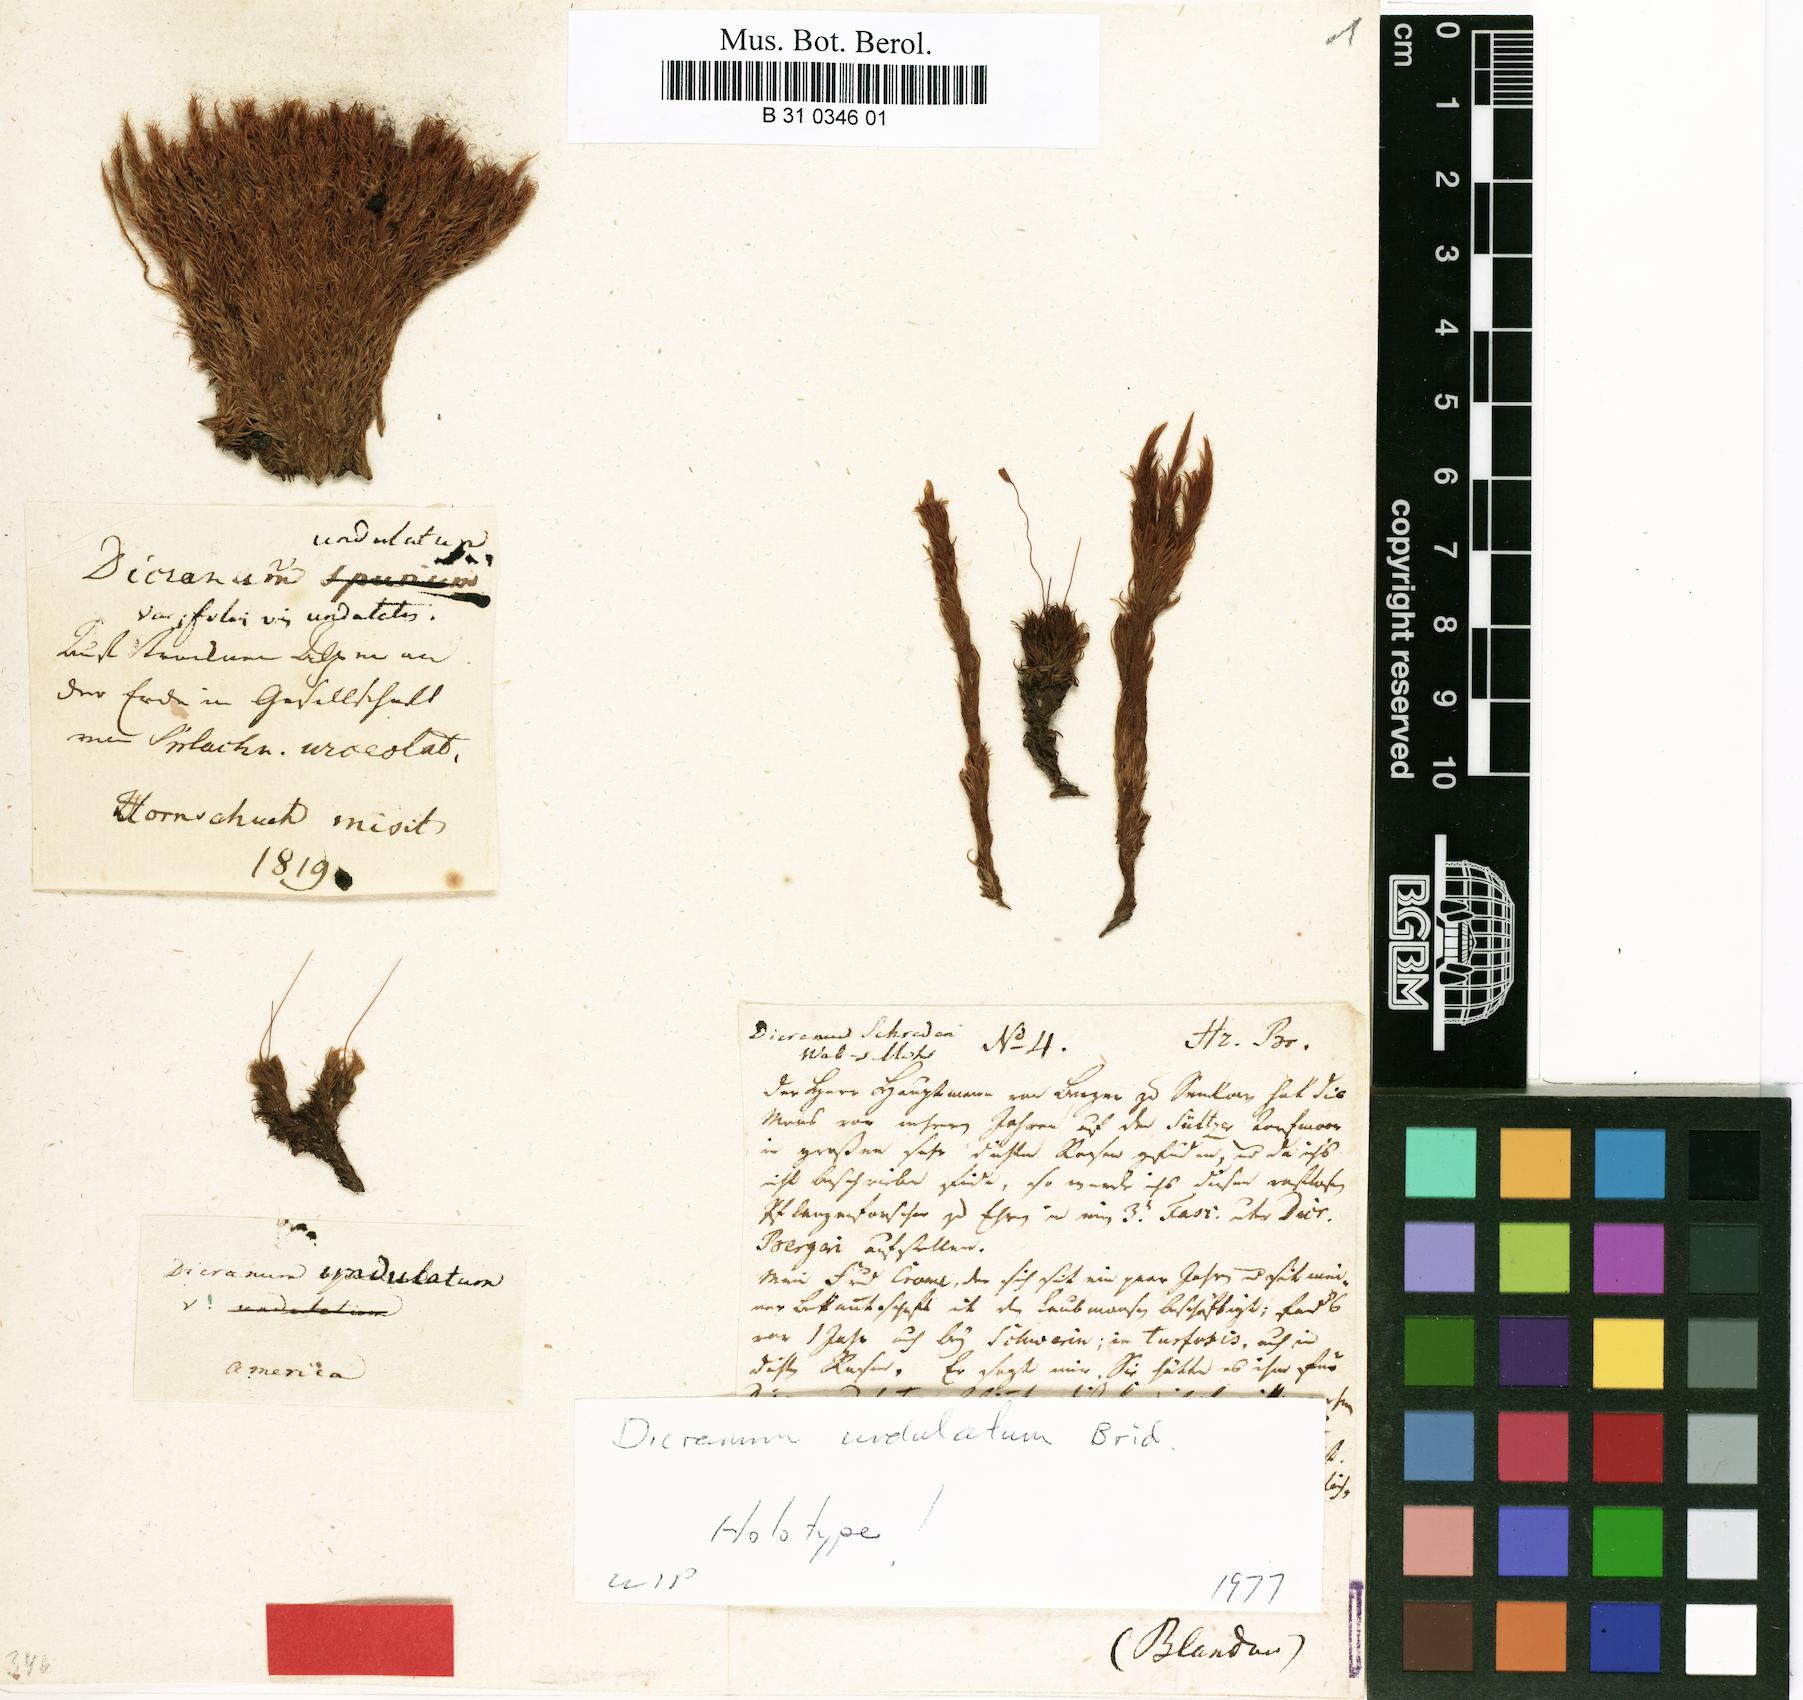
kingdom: Plantae
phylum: Bryophyta
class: Bryopsida
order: Dicranales
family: Dicranaceae
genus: Dicranum
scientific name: Dicranum undulatum
